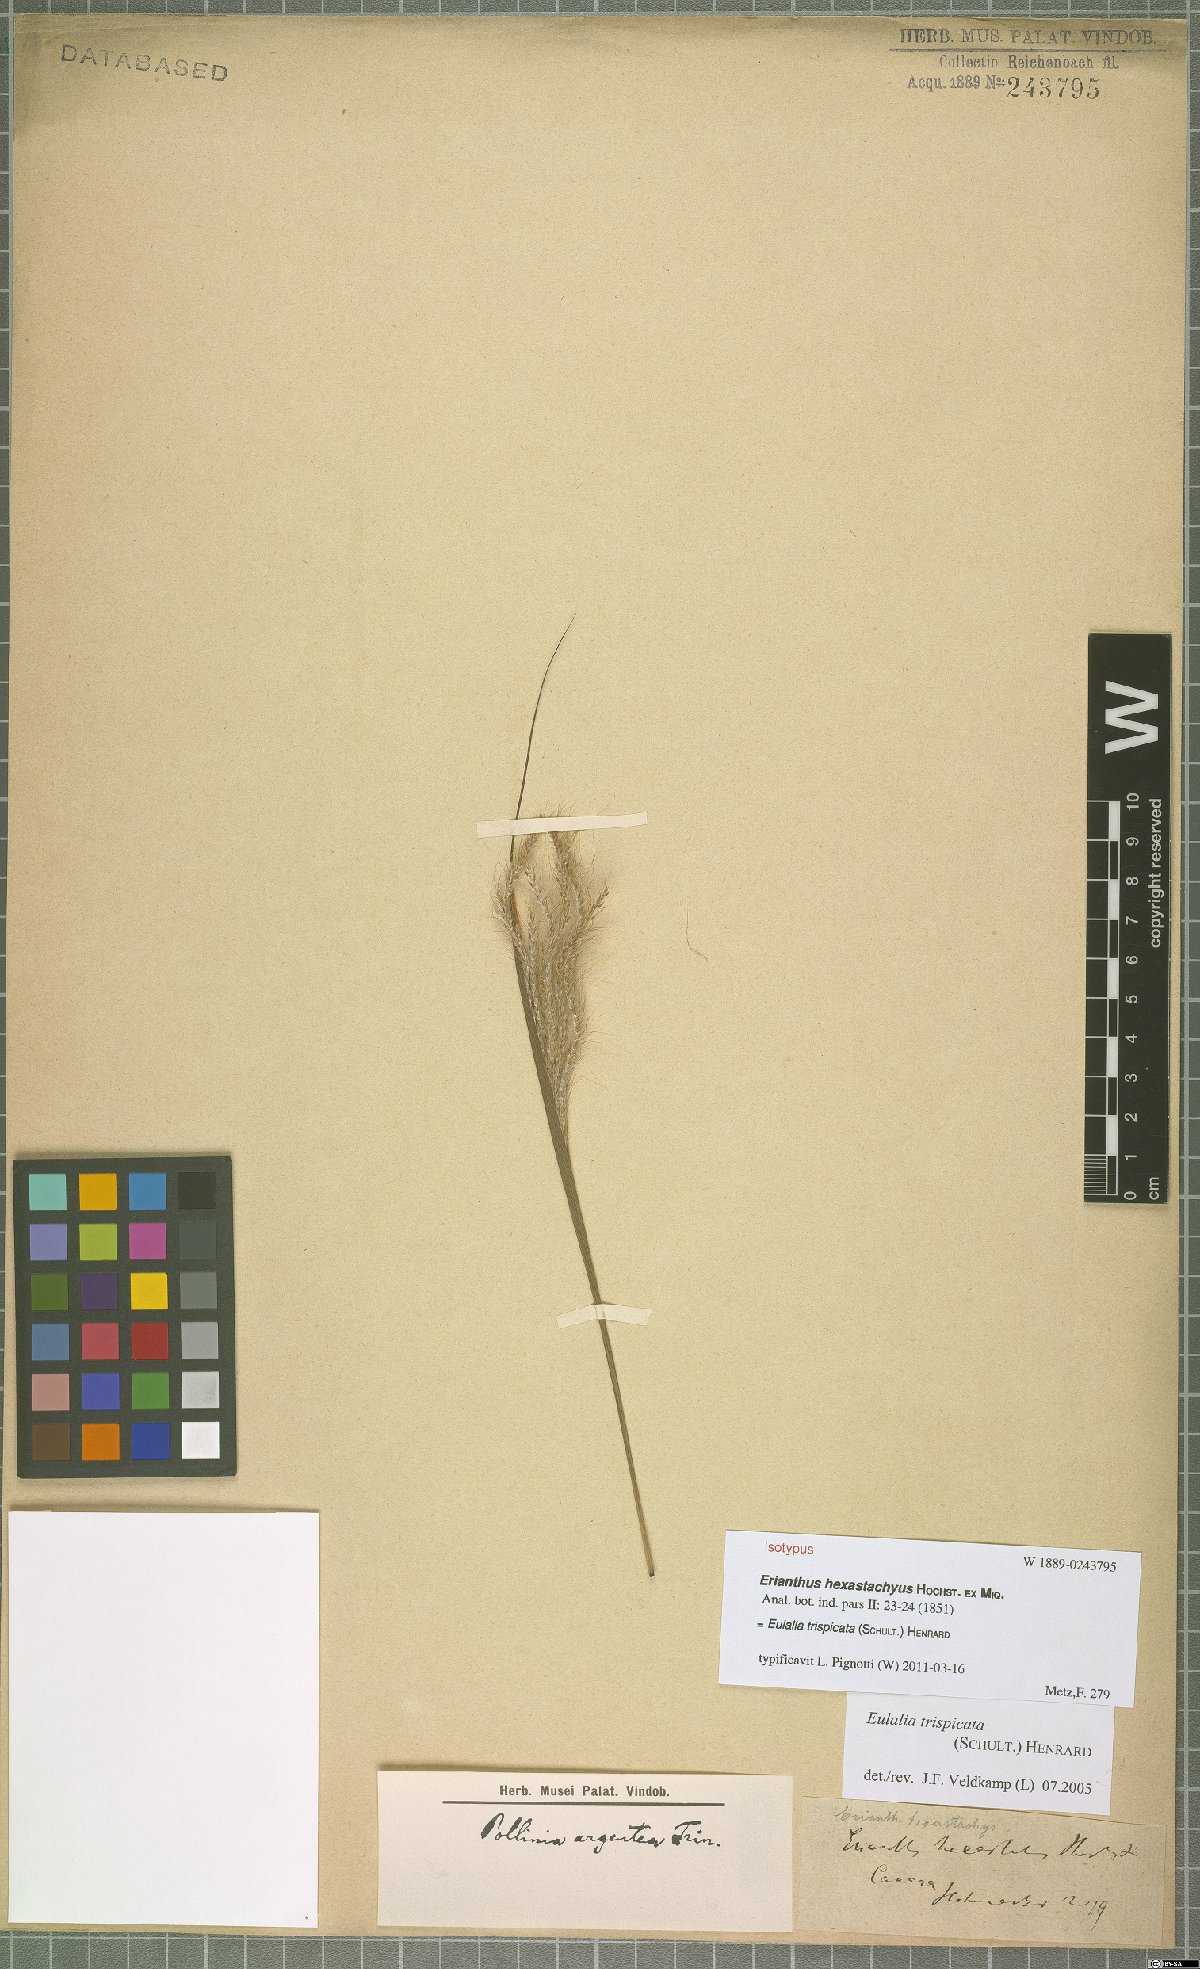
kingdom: Plantae
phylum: Tracheophyta
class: Liliopsida
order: Poales
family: Poaceae
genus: Pseudopogonatherum
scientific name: Pseudopogonatherum trispicatum
